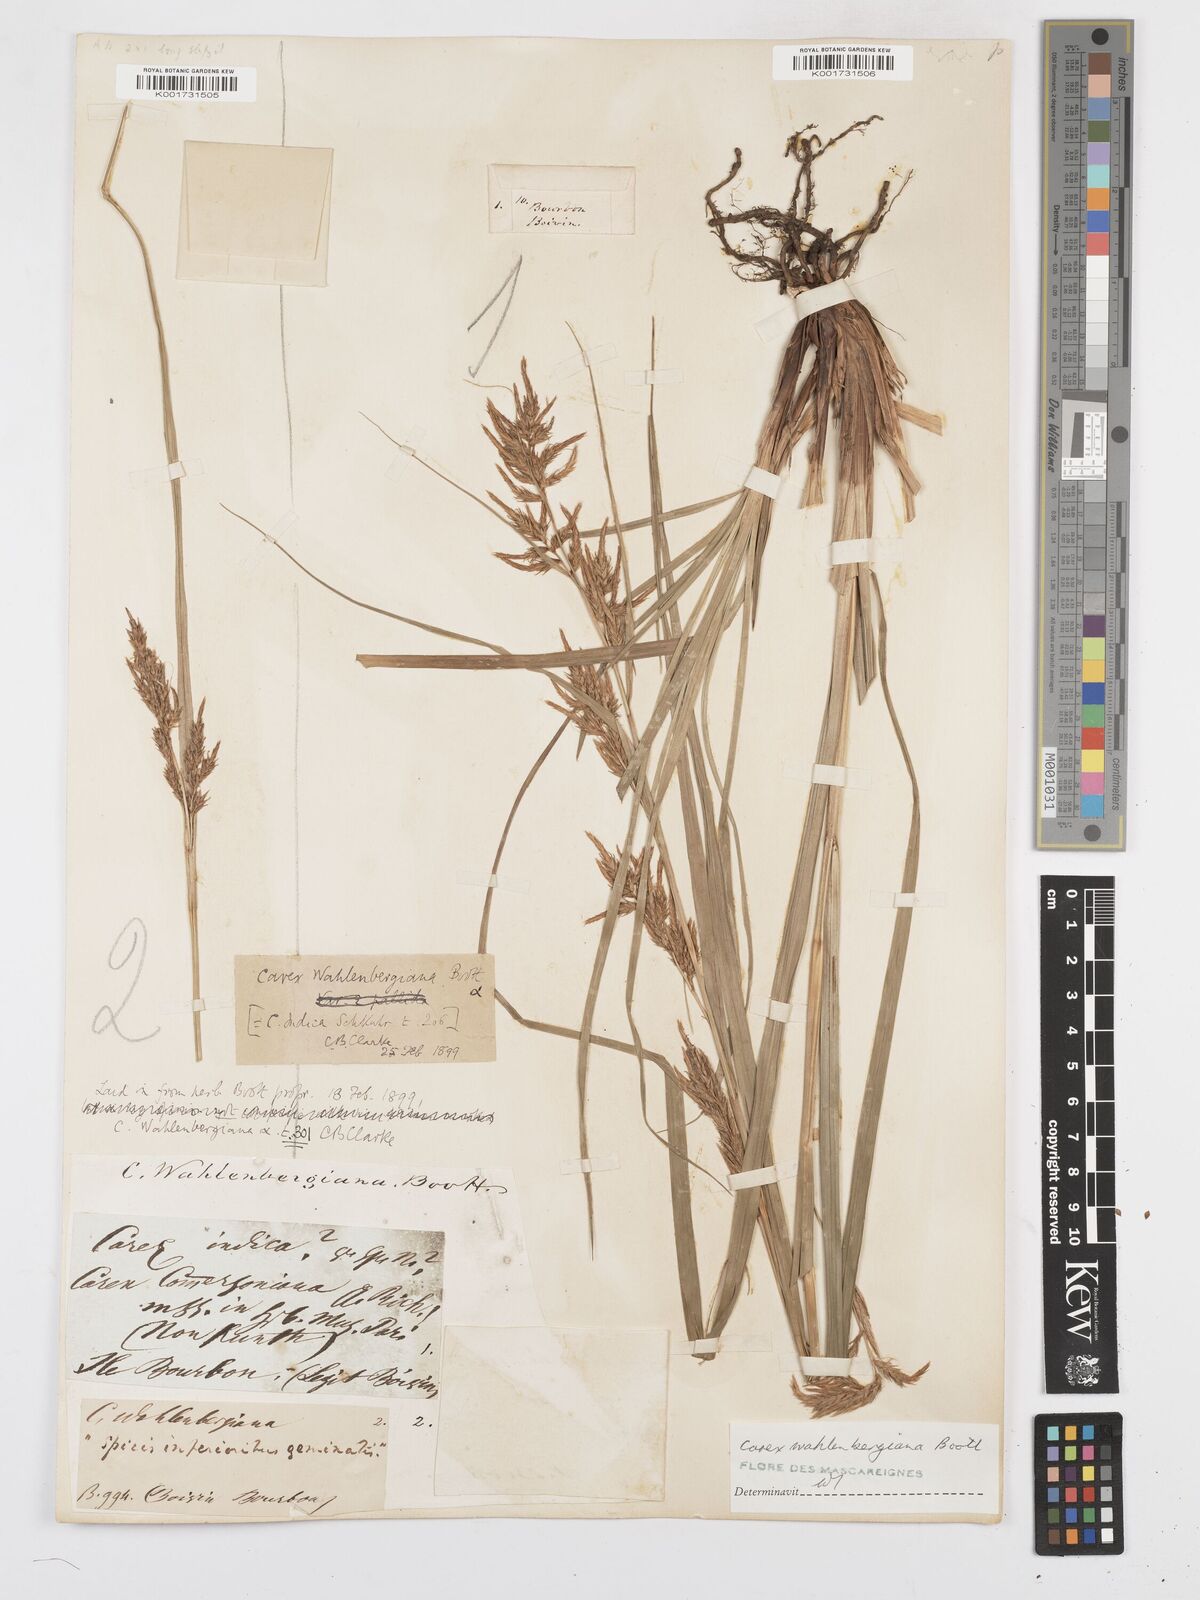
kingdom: Plantae
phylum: Tracheophyta
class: Liliopsida
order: Poales
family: Cyperaceae
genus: Carex
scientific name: Carex wahlenbergiana
